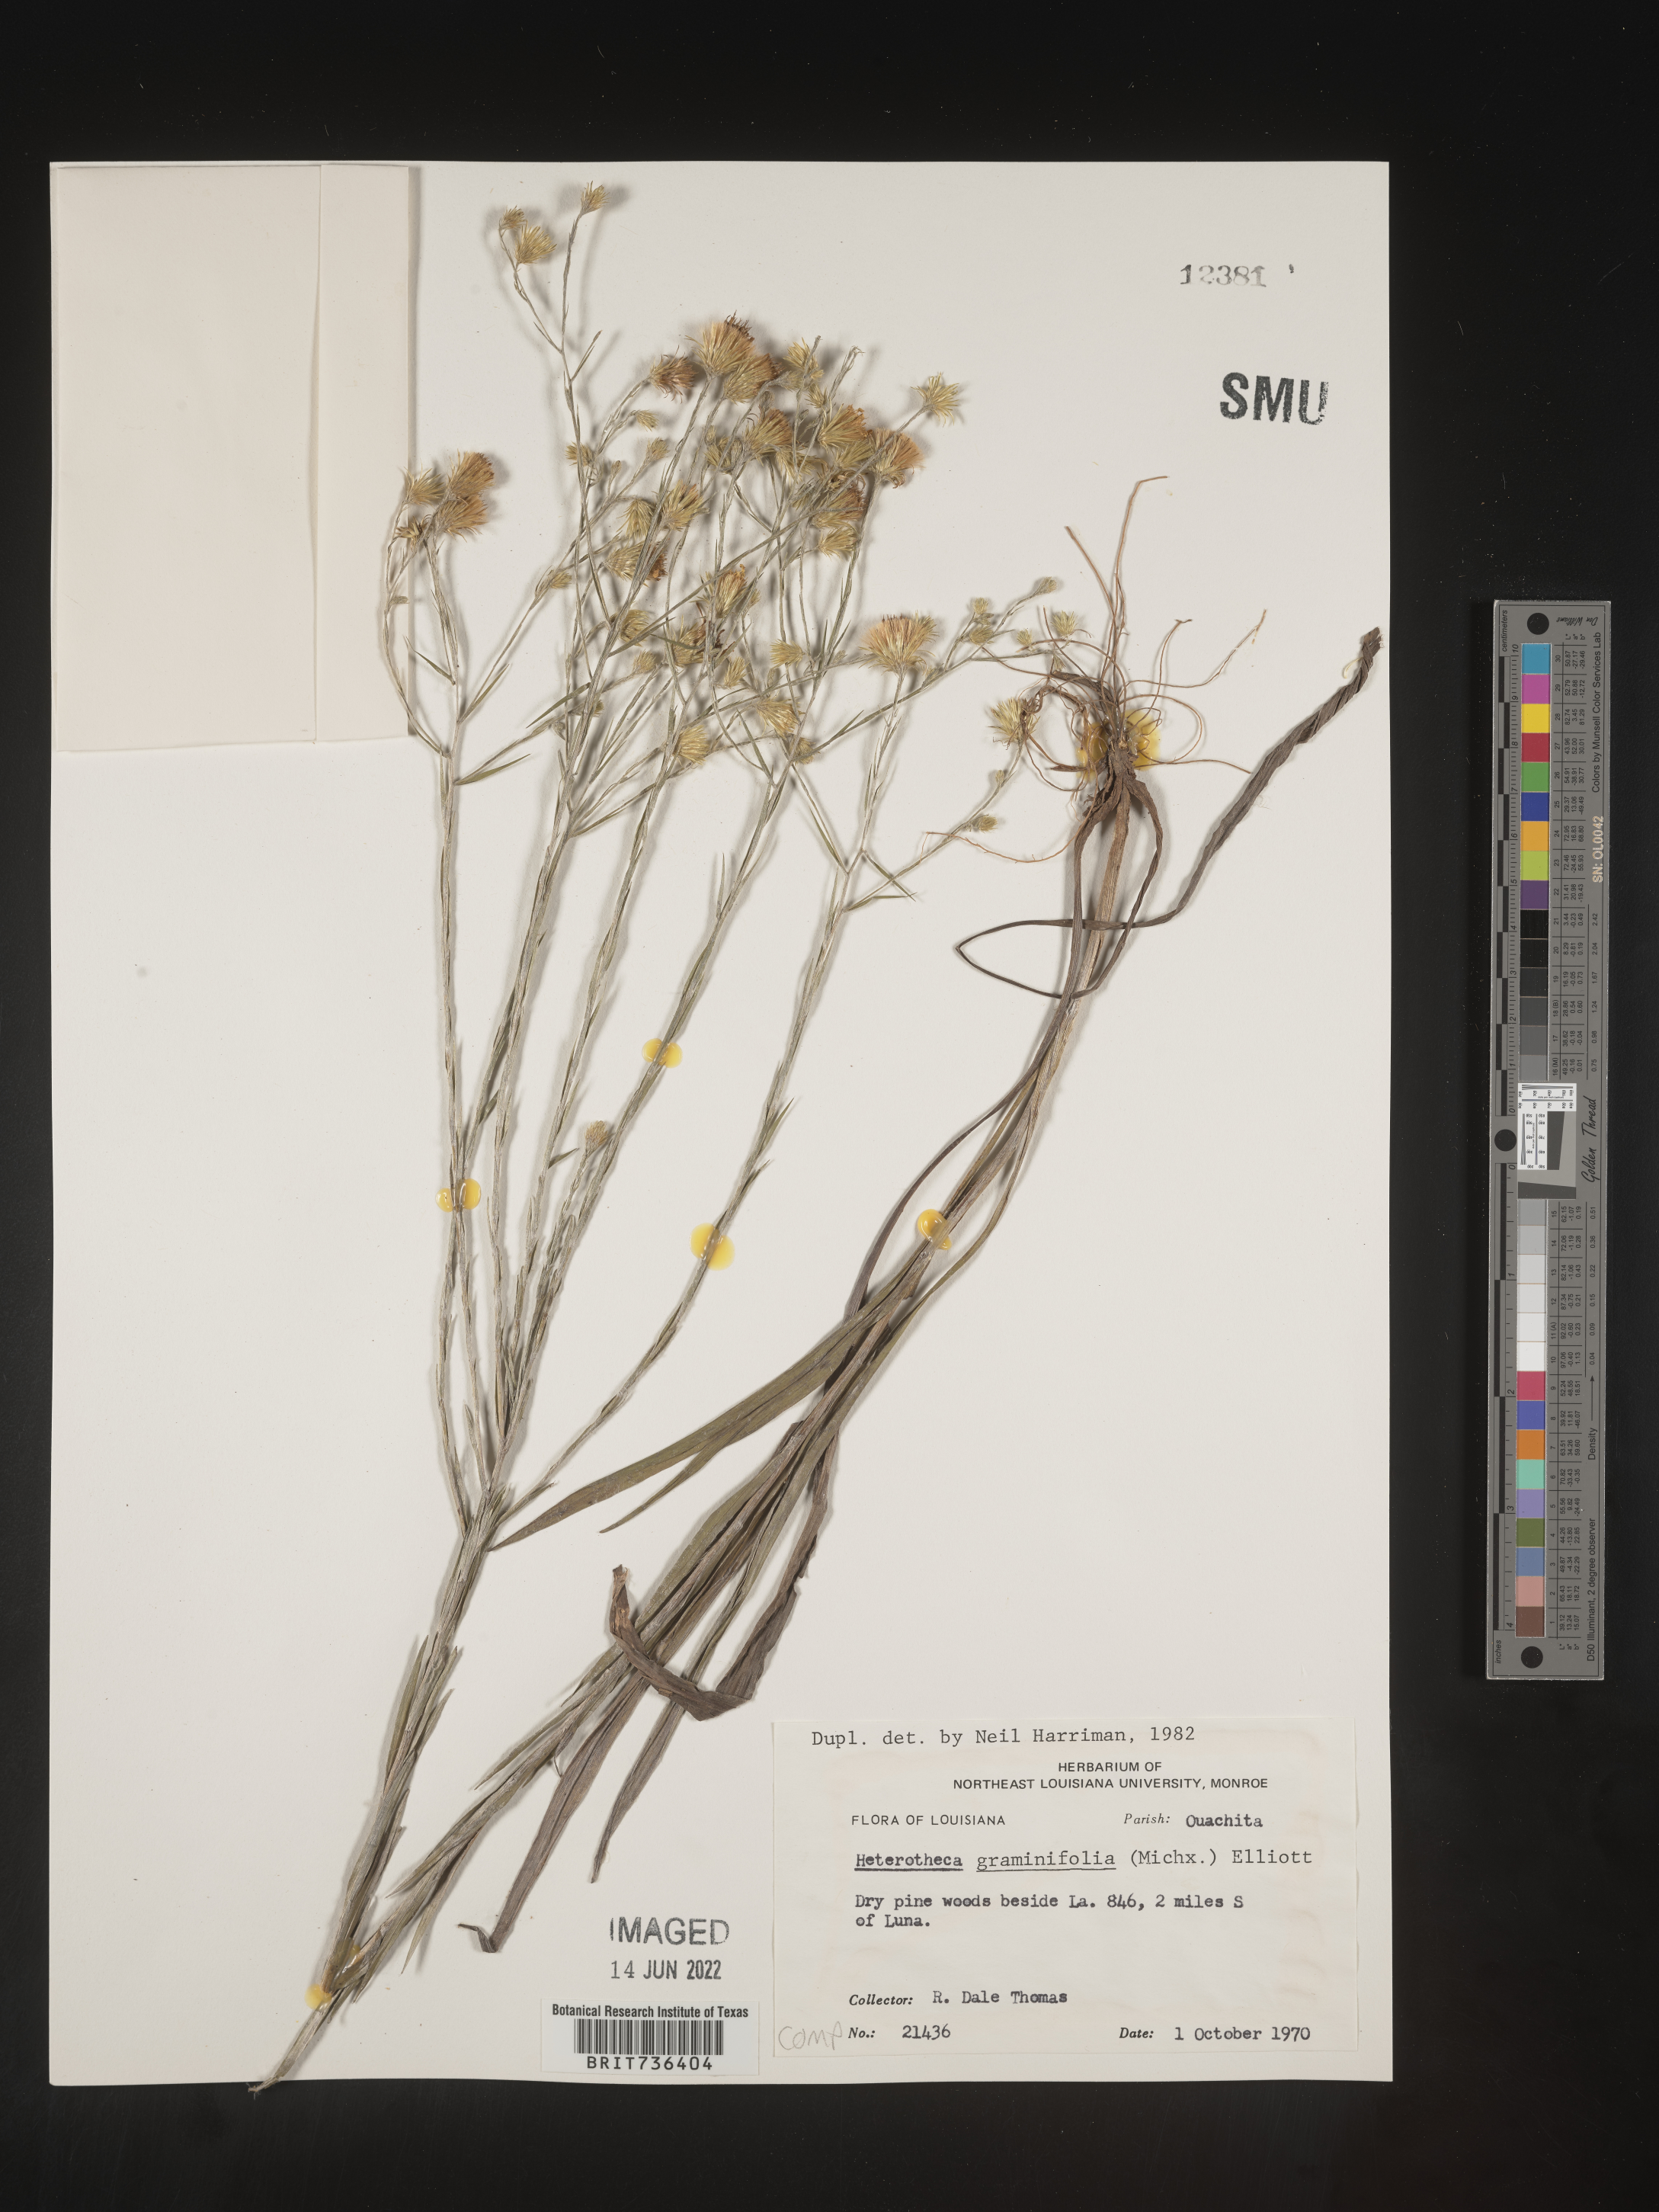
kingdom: Plantae
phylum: Tracheophyta
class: Magnoliopsida
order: Asterales
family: Asteraceae
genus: Pityopsis
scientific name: Pityopsis tenuifolia
